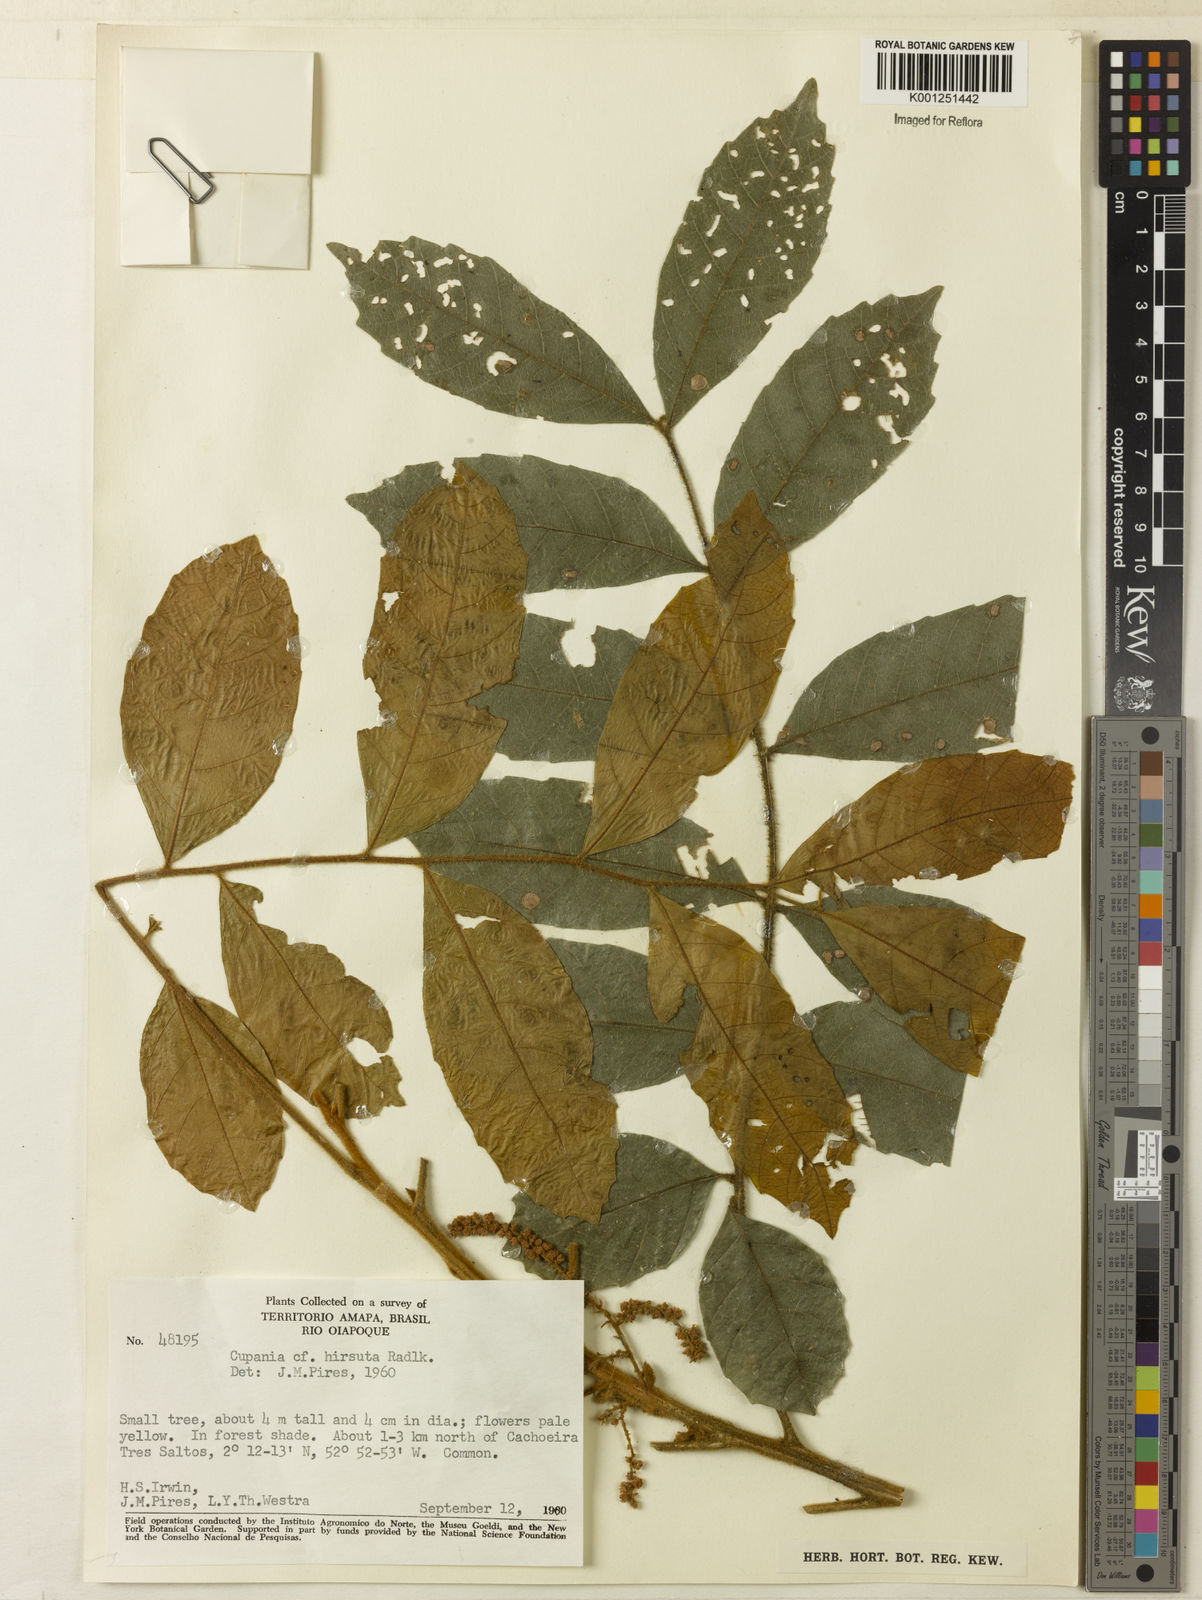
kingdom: Plantae
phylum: Tracheophyta
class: Magnoliopsida
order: Sapindales
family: Sapindaceae
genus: Cupania
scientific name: Cupania hirsuta
